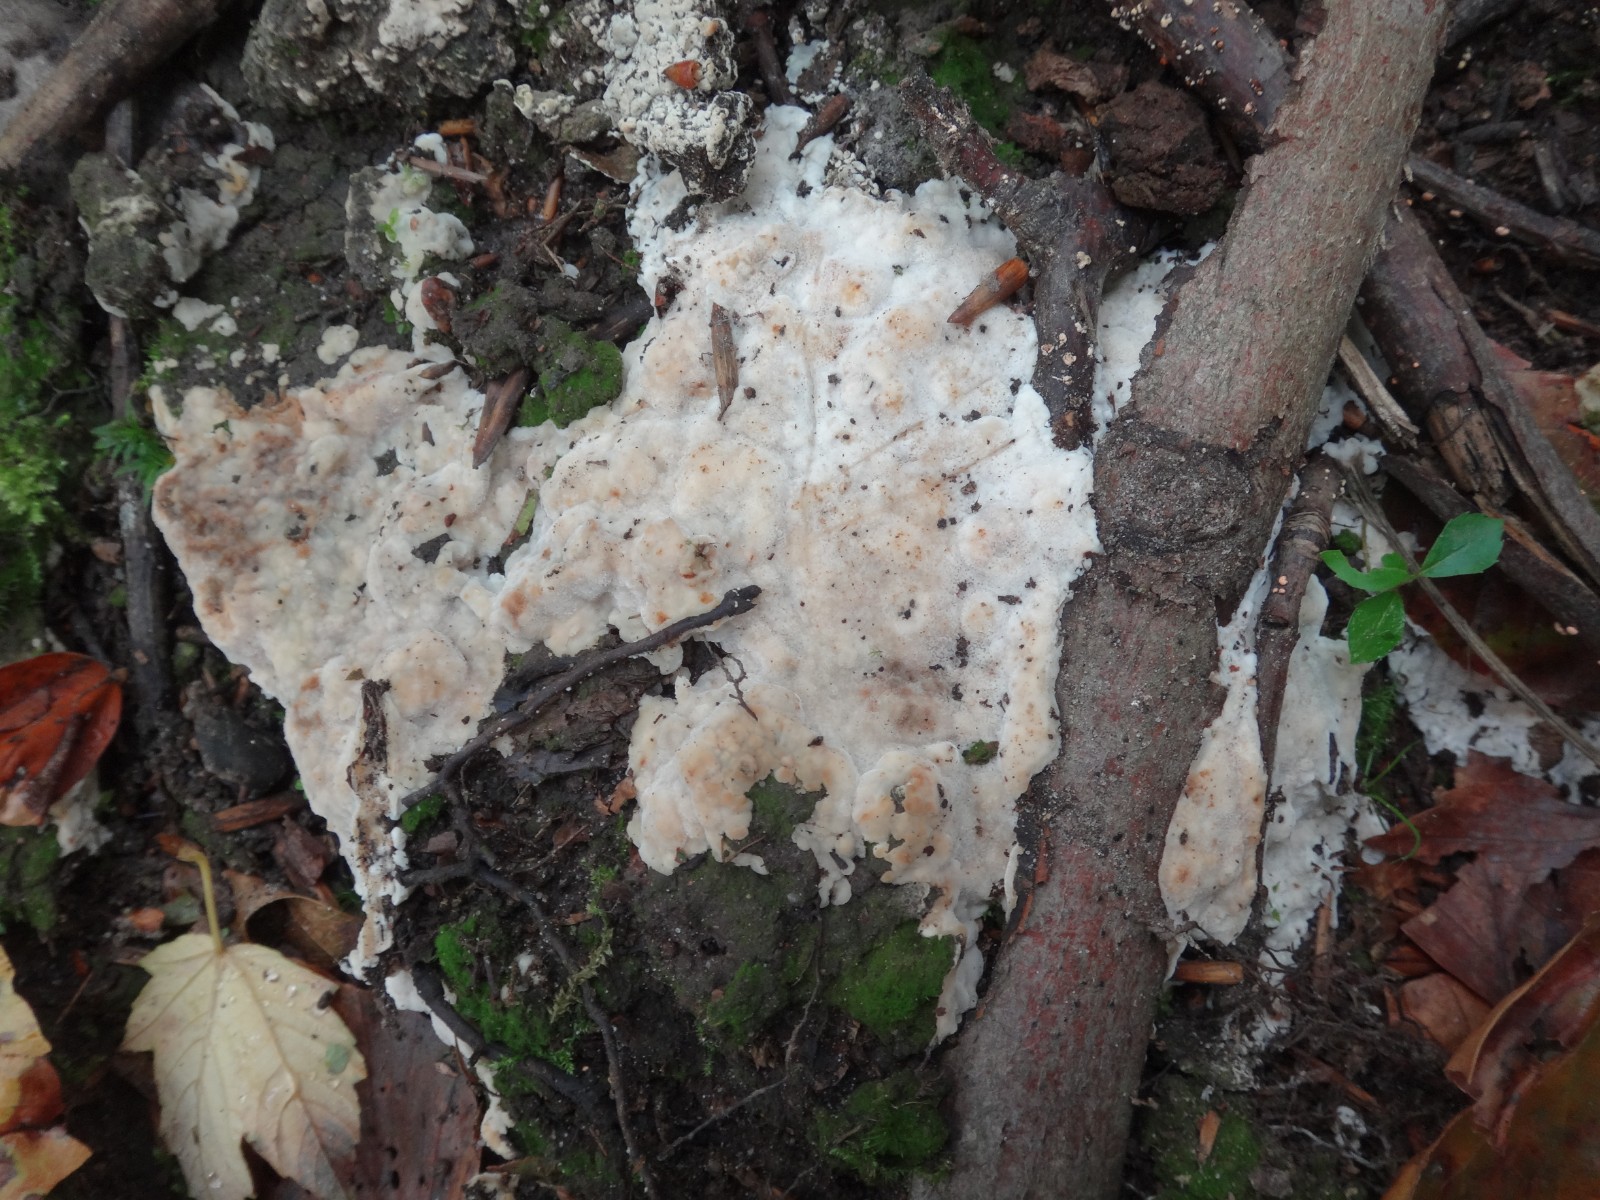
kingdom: Fungi
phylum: Basidiomycota
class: Agaricomycetes
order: Polyporales
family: Meruliaceae
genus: Physisporinus
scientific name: Physisporinus vitreus
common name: mastesvamp
